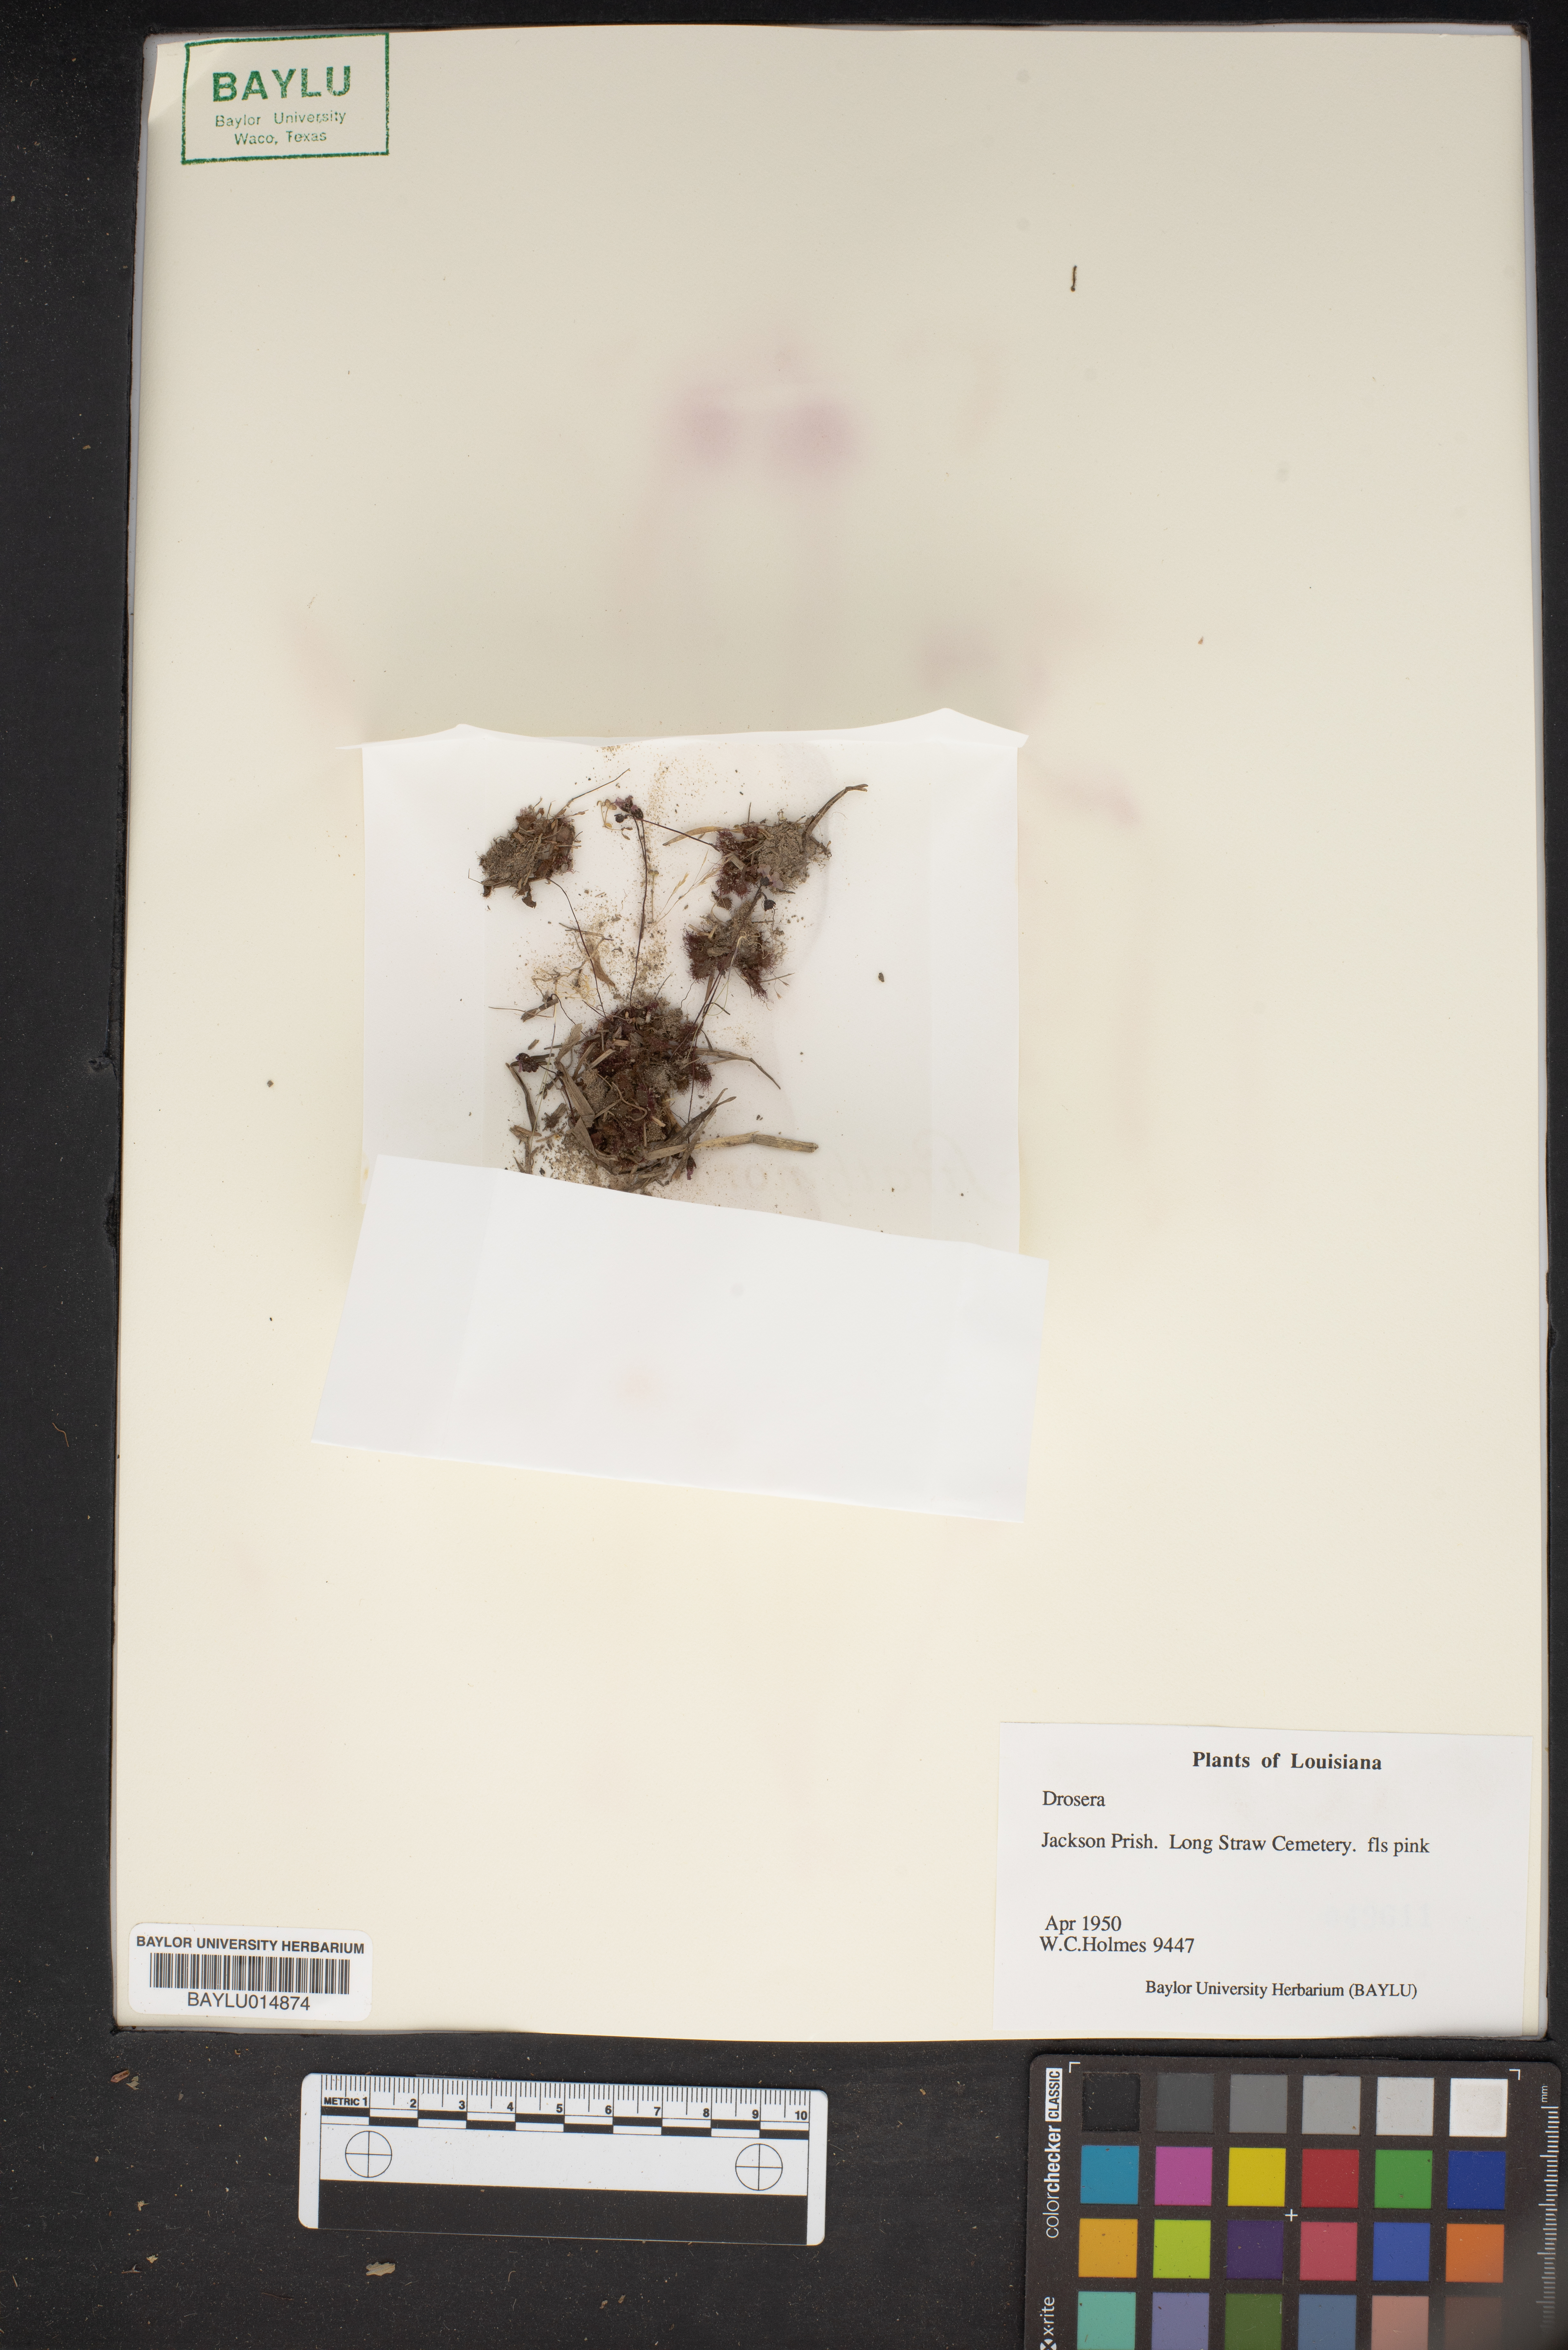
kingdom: Plantae
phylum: Tracheophyta
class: Magnoliopsida
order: Caryophyllales
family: Droseraceae
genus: Drosera
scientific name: Drosera
